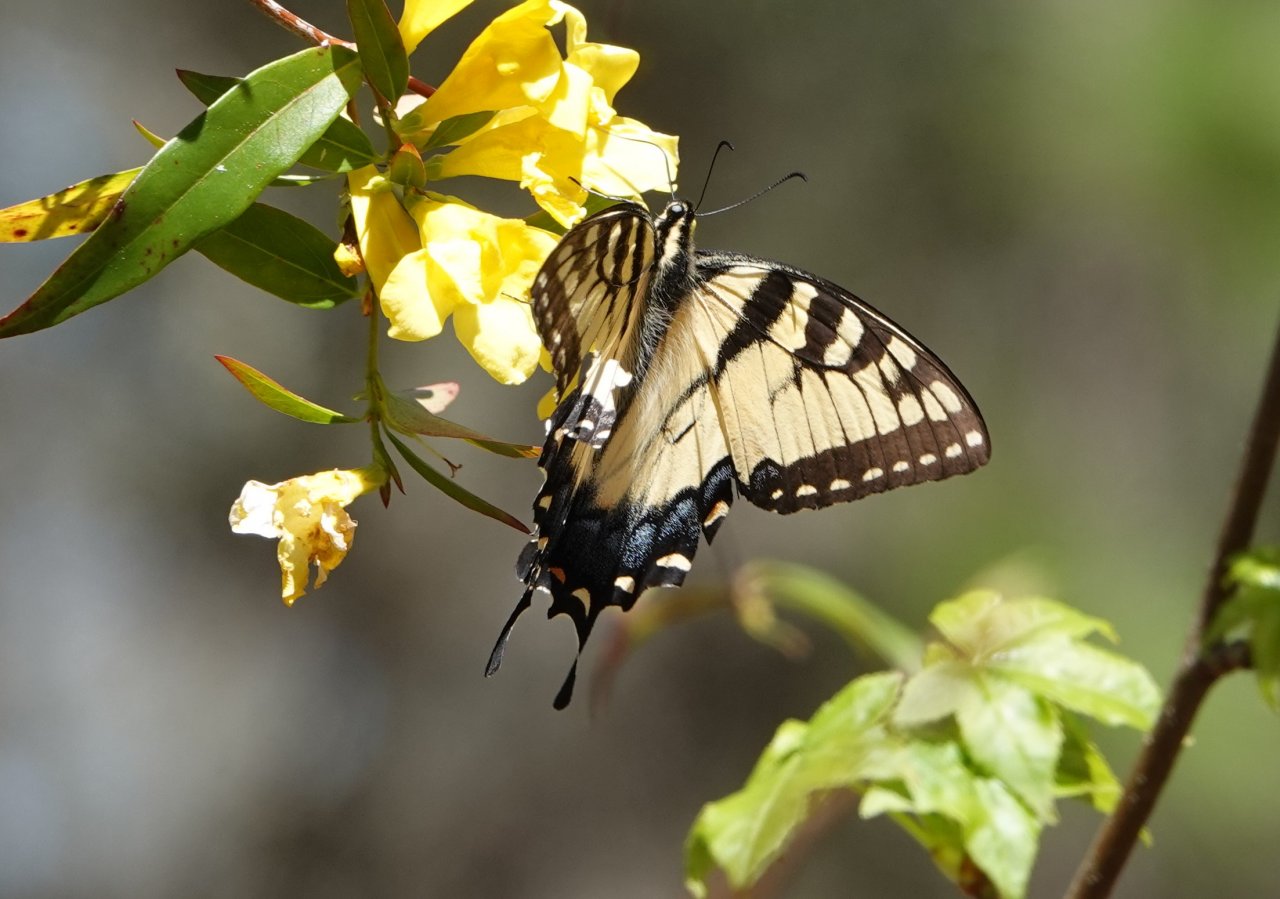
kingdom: Animalia
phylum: Arthropoda
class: Insecta
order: Lepidoptera
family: Papilionidae
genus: Pterourus
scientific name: Pterourus glaucus
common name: Eastern Tiger Swallowtail
